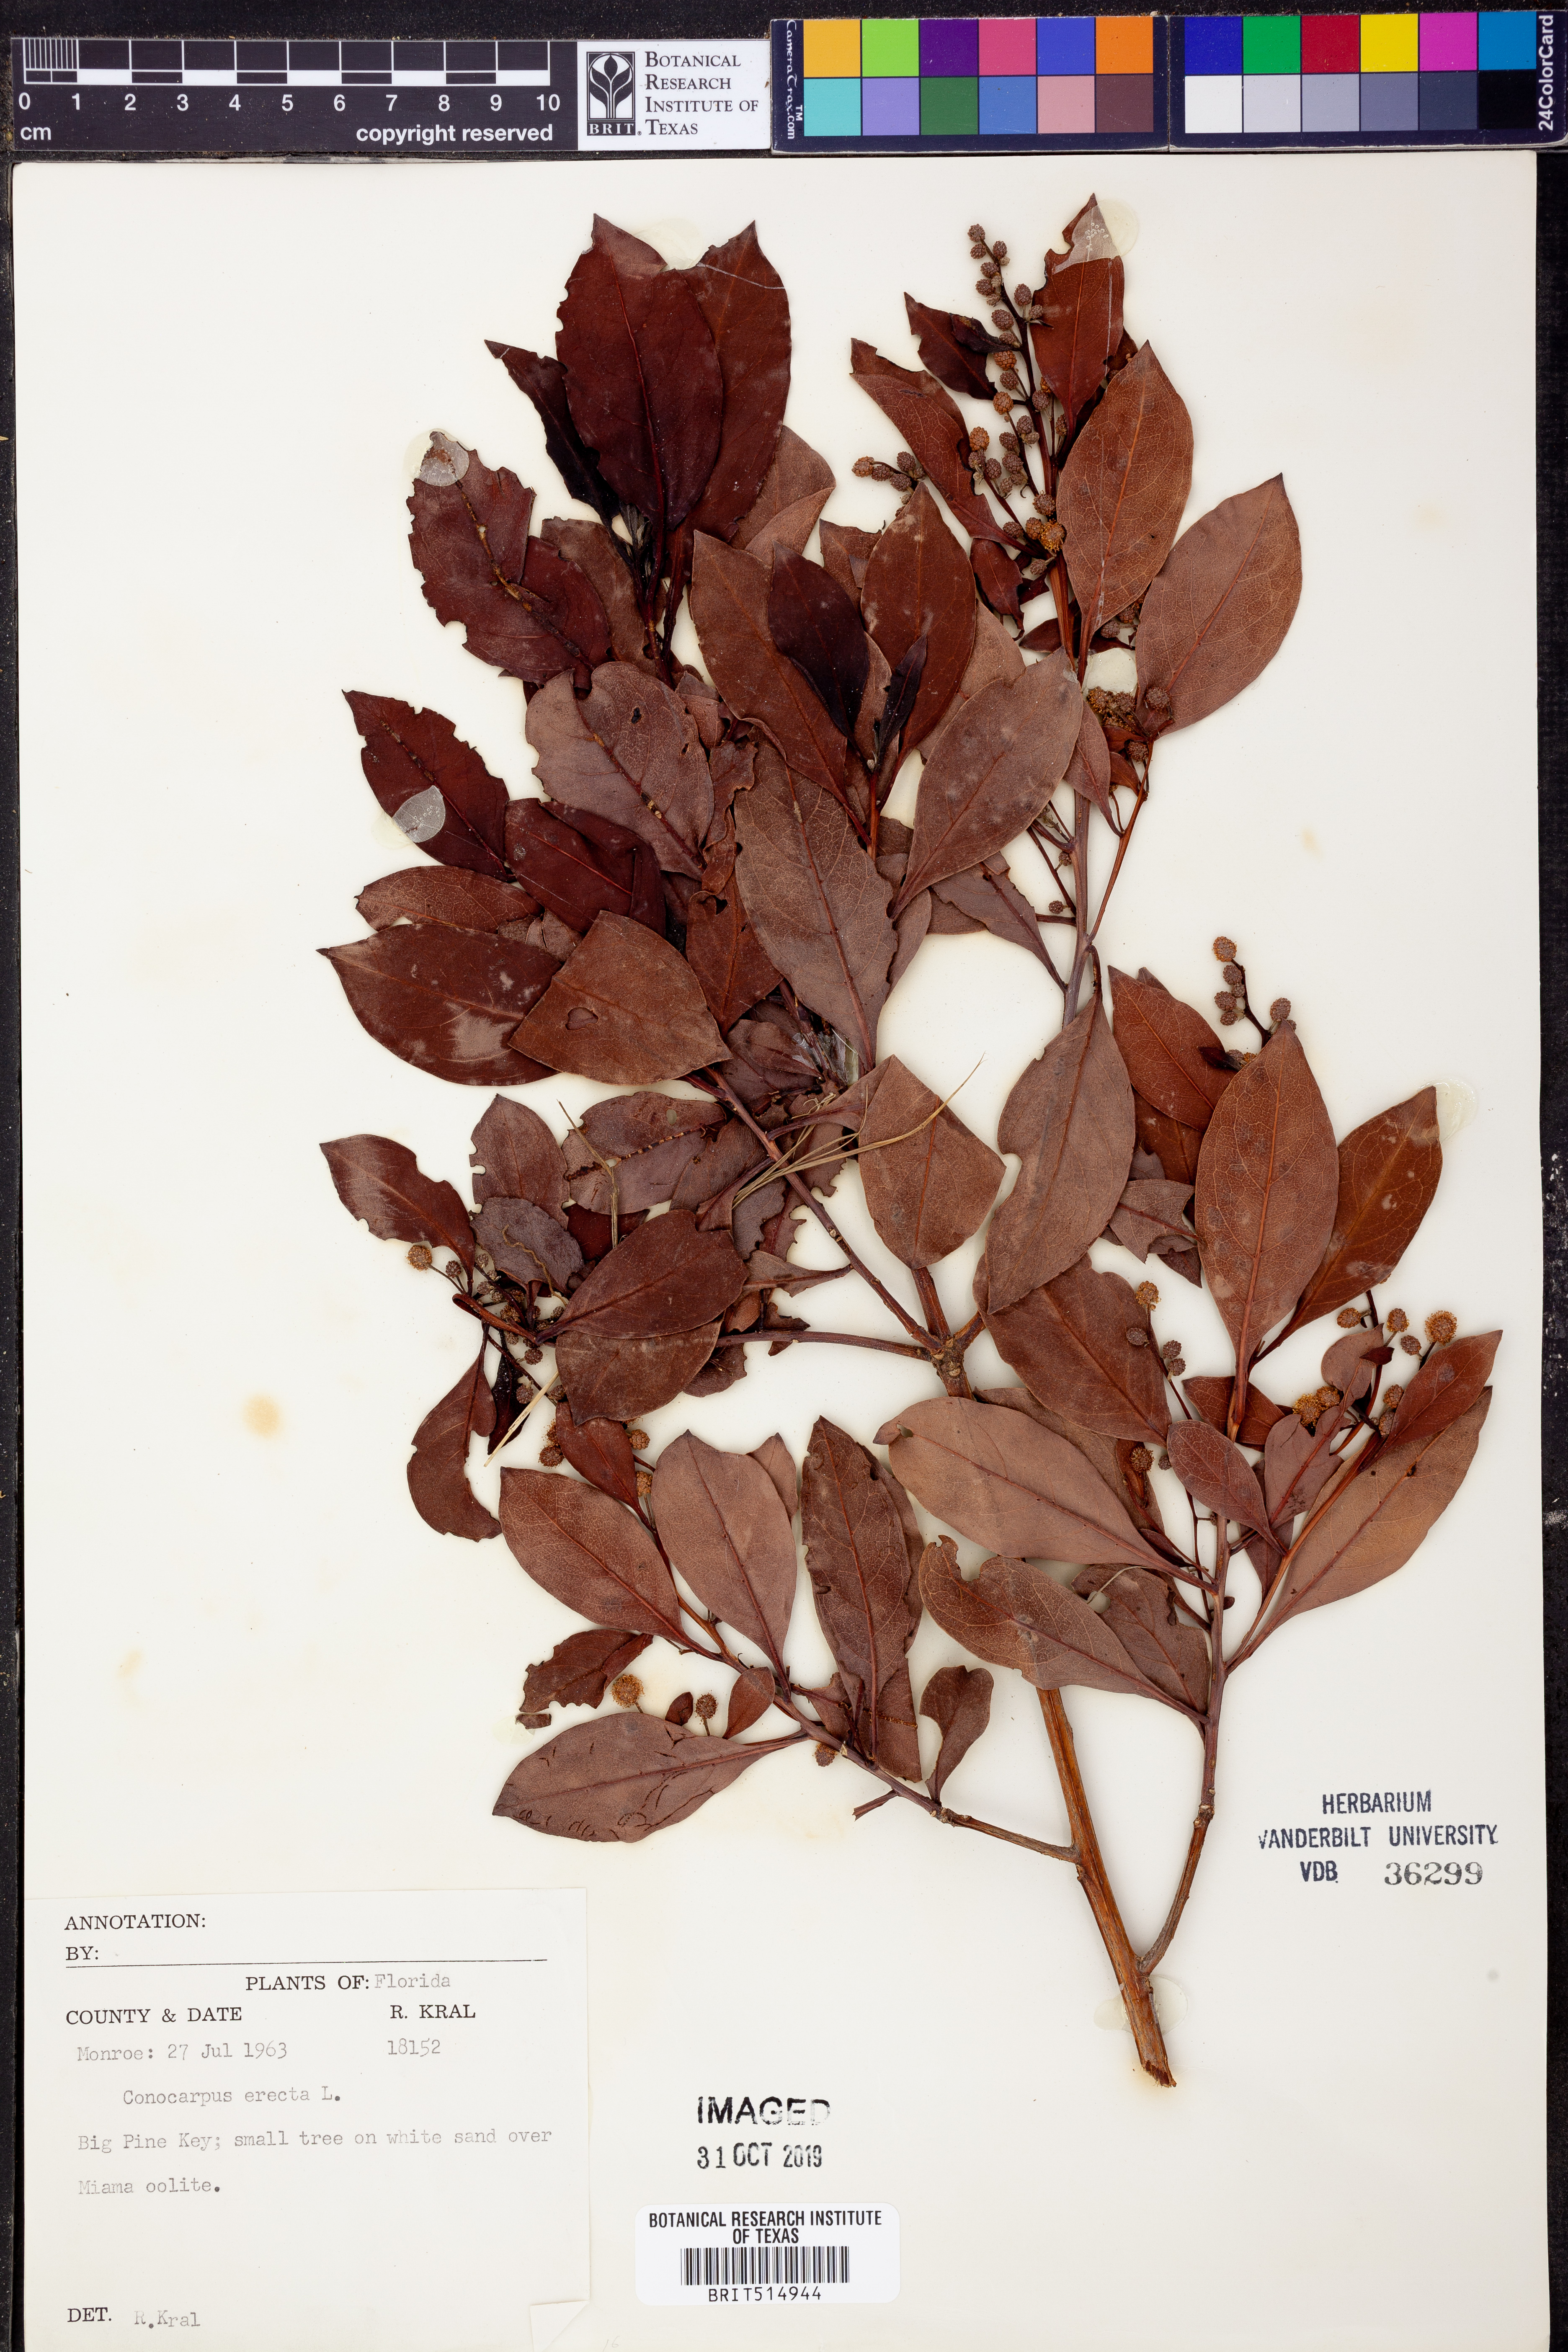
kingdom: Plantae
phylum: Tracheophyta
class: Magnoliopsida
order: Myrtales
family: Combretaceae
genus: Conocarpus
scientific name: Conocarpus erectus
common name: Button mangrove
